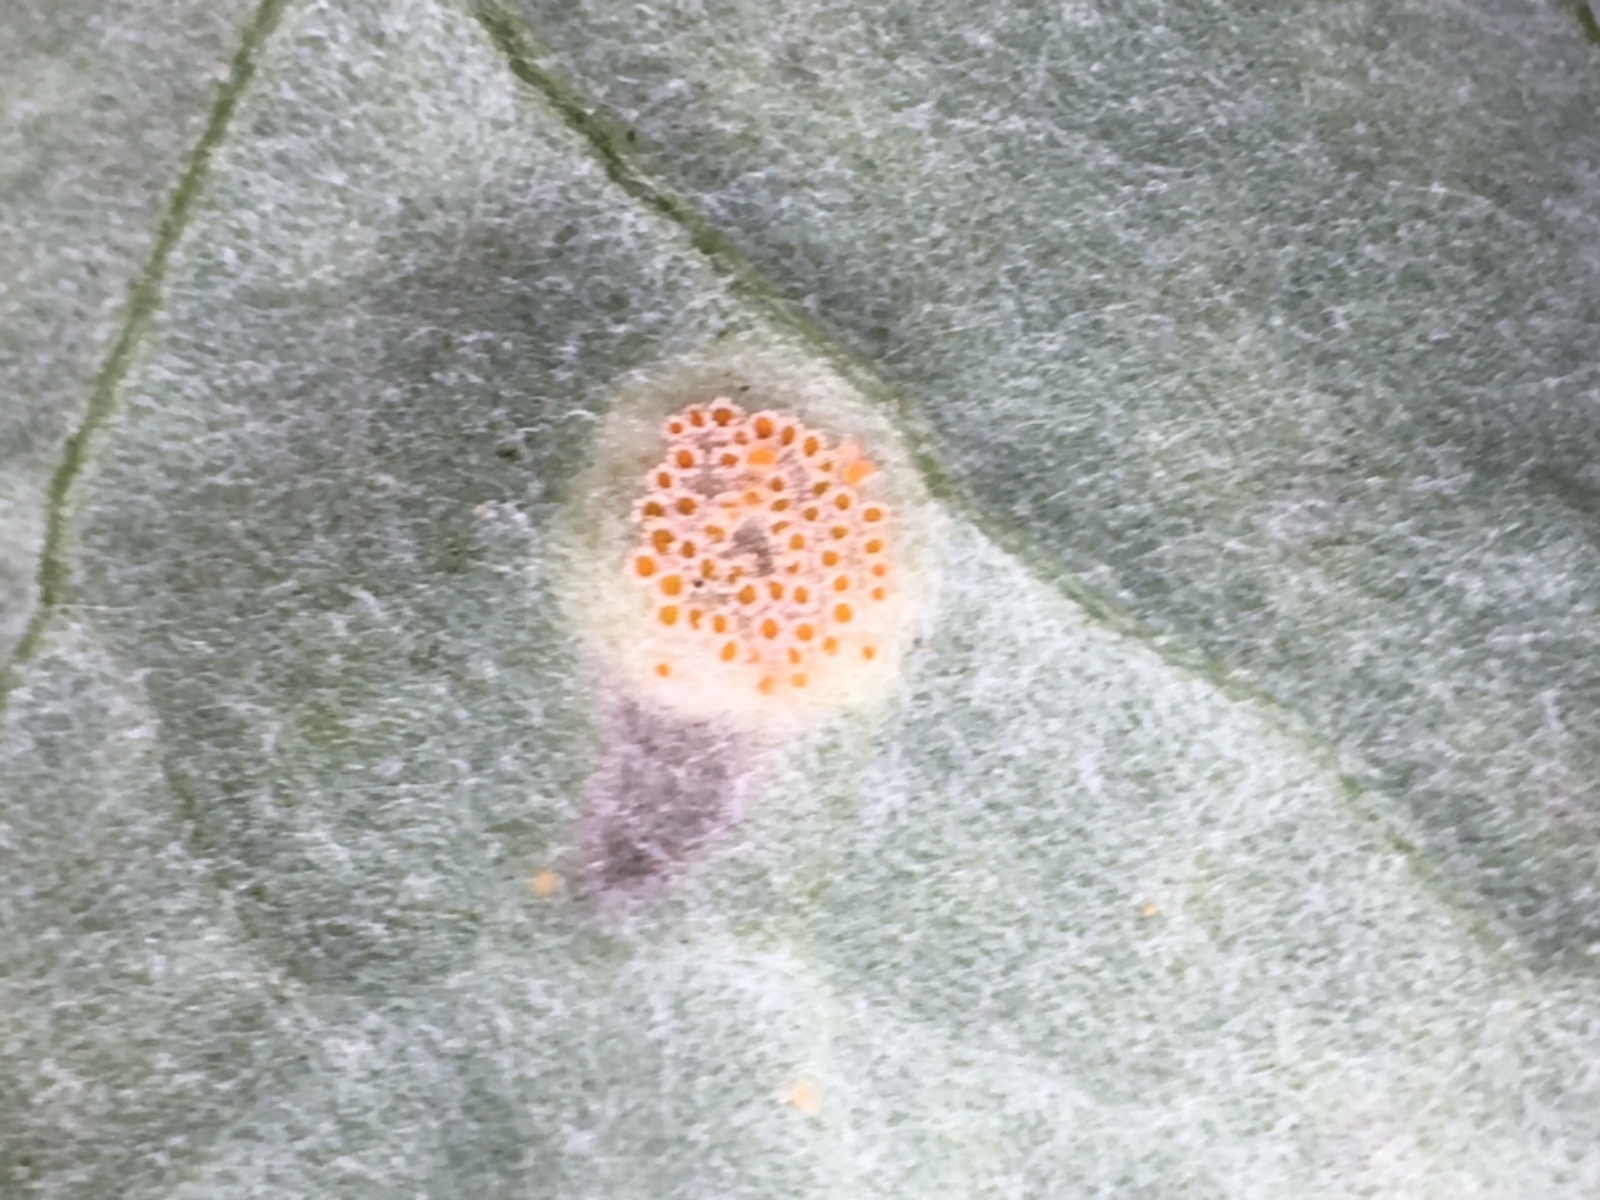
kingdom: Fungi
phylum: Basidiomycota
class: Pucciniomycetes
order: Pucciniales
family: Pucciniaceae
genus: Puccinia
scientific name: Puccinia poarum
